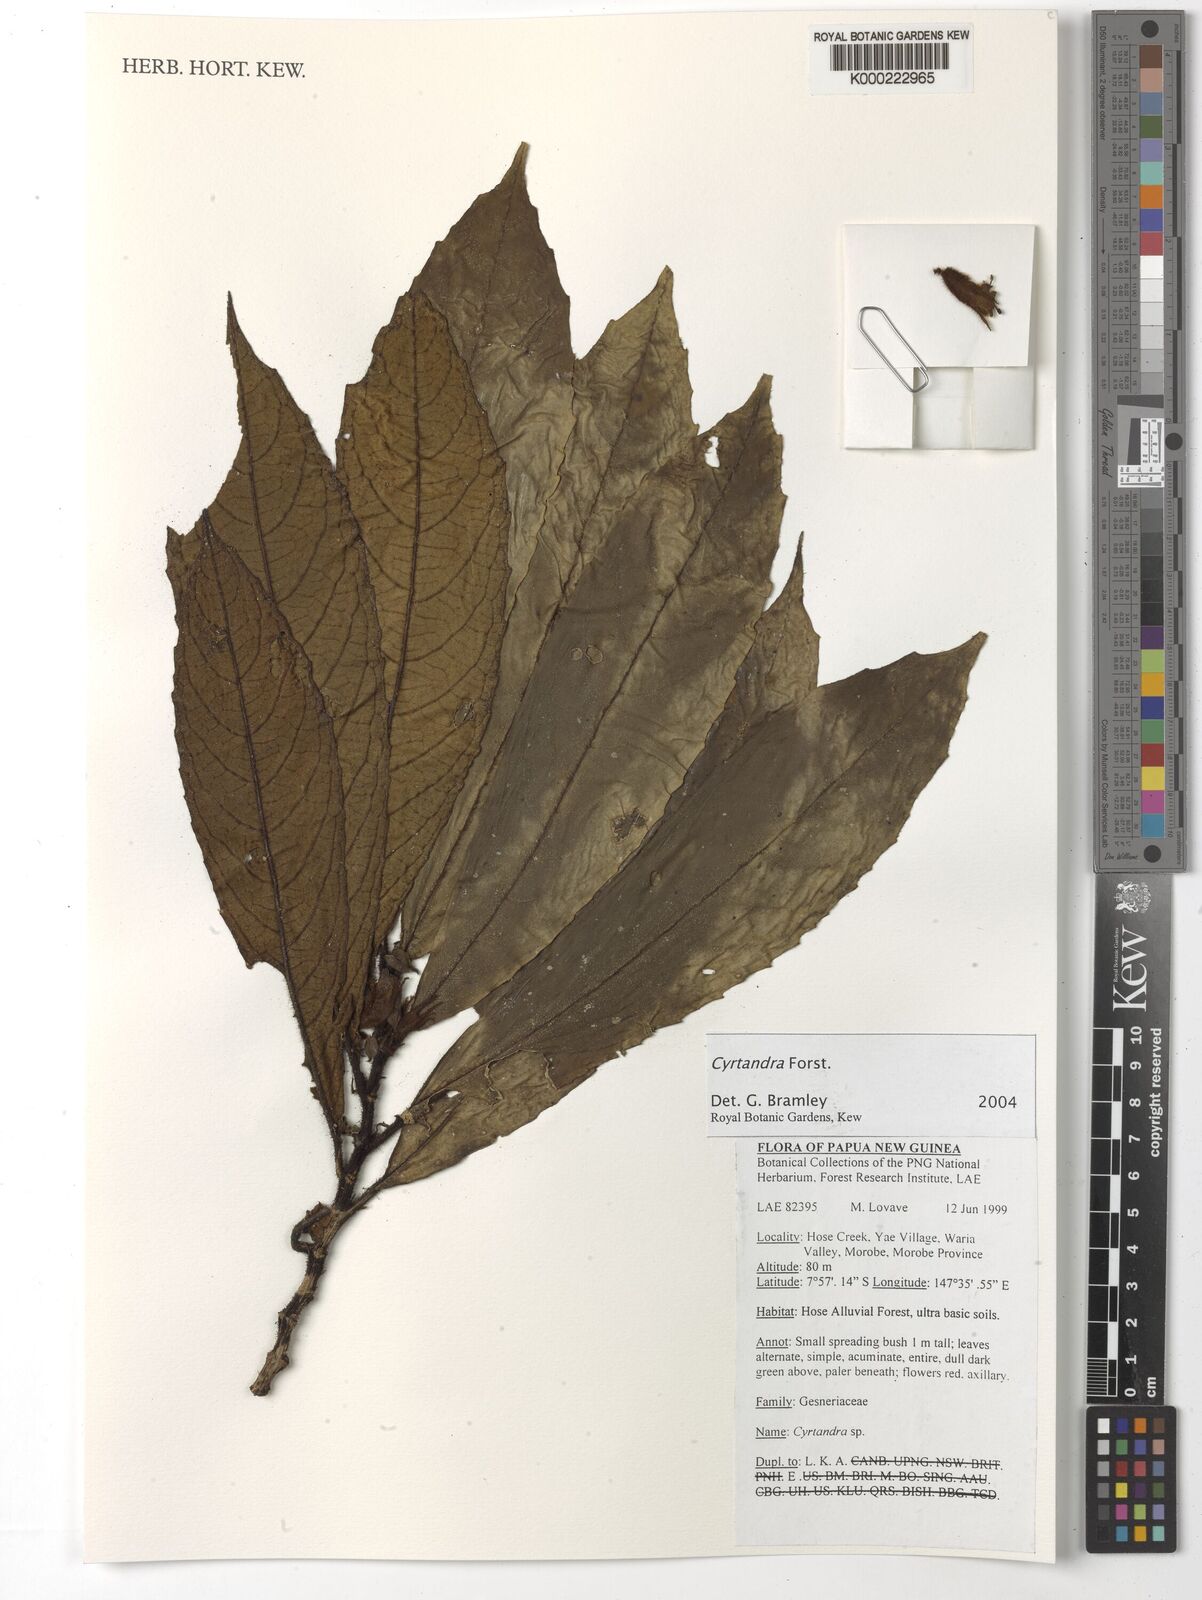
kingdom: Plantae
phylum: Tracheophyta
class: Magnoliopsida
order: Lamiales
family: Gesneriaceae
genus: Cyrtandra
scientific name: Cyrtandra
